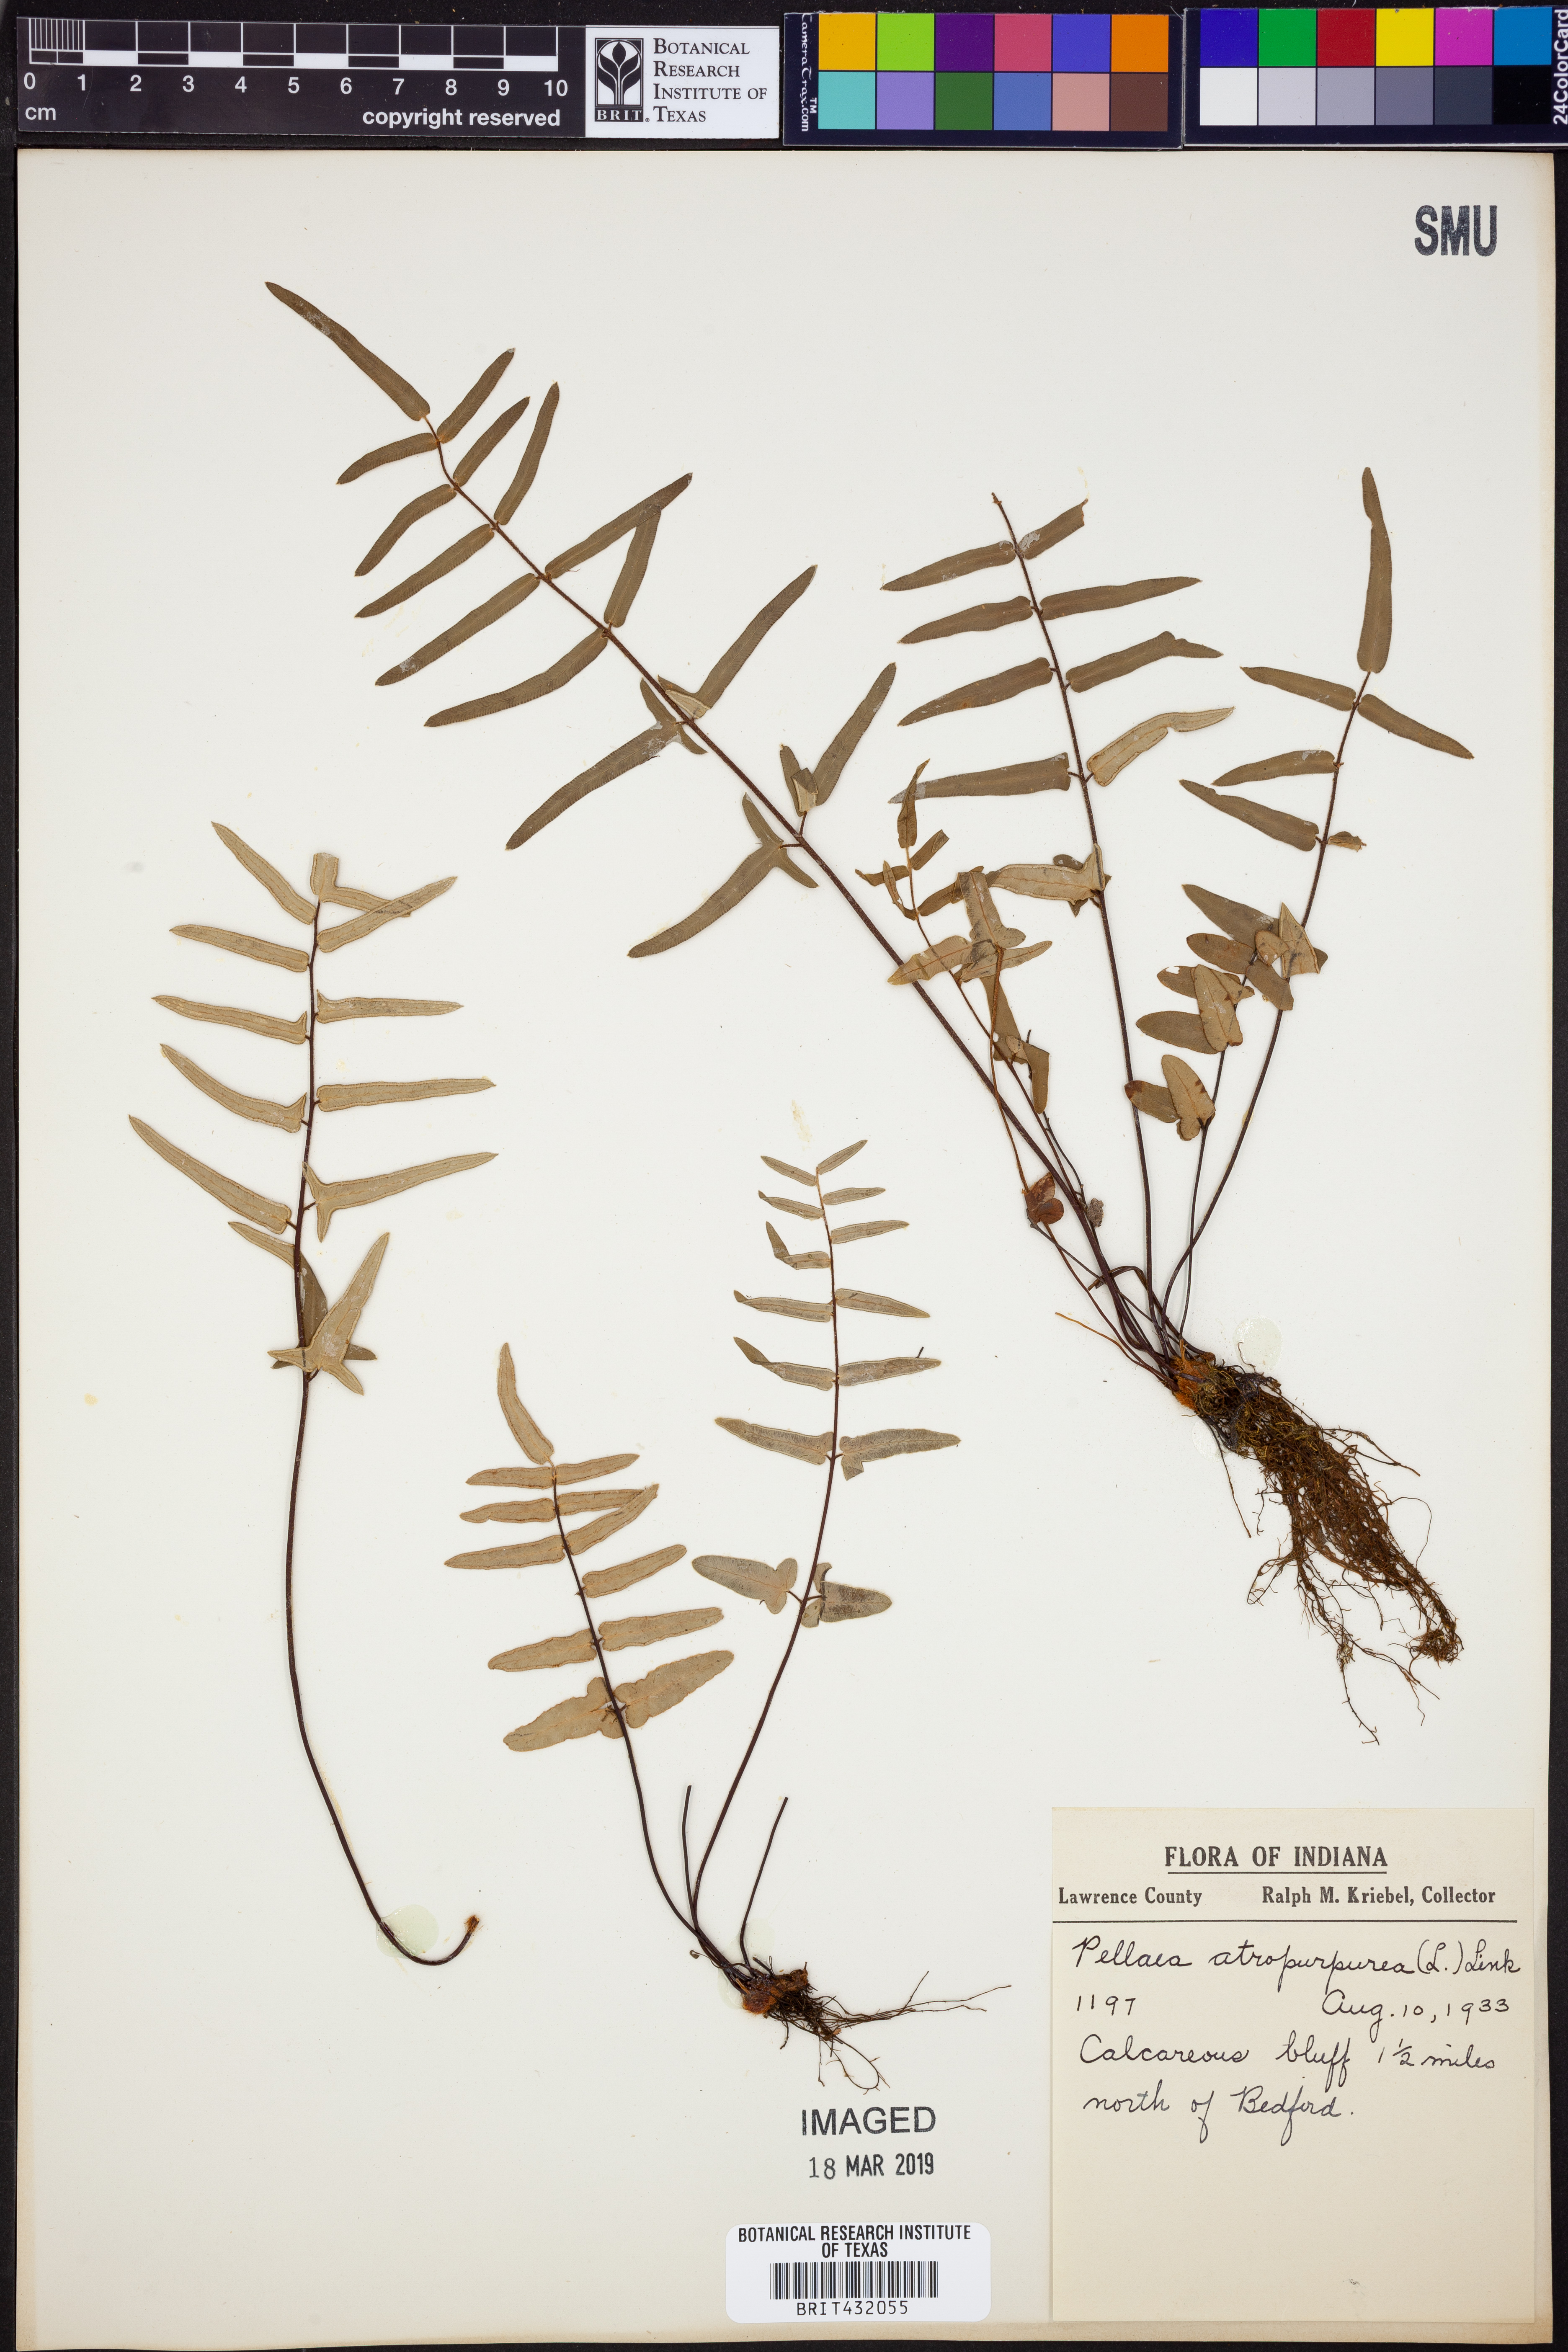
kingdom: Plantae
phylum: Tracheophyta
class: Polypodiopsida
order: Polypodiales
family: Pteridaceae
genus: Pellaea
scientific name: Pellaea atropurpurea
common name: Hairy cliffbrake
